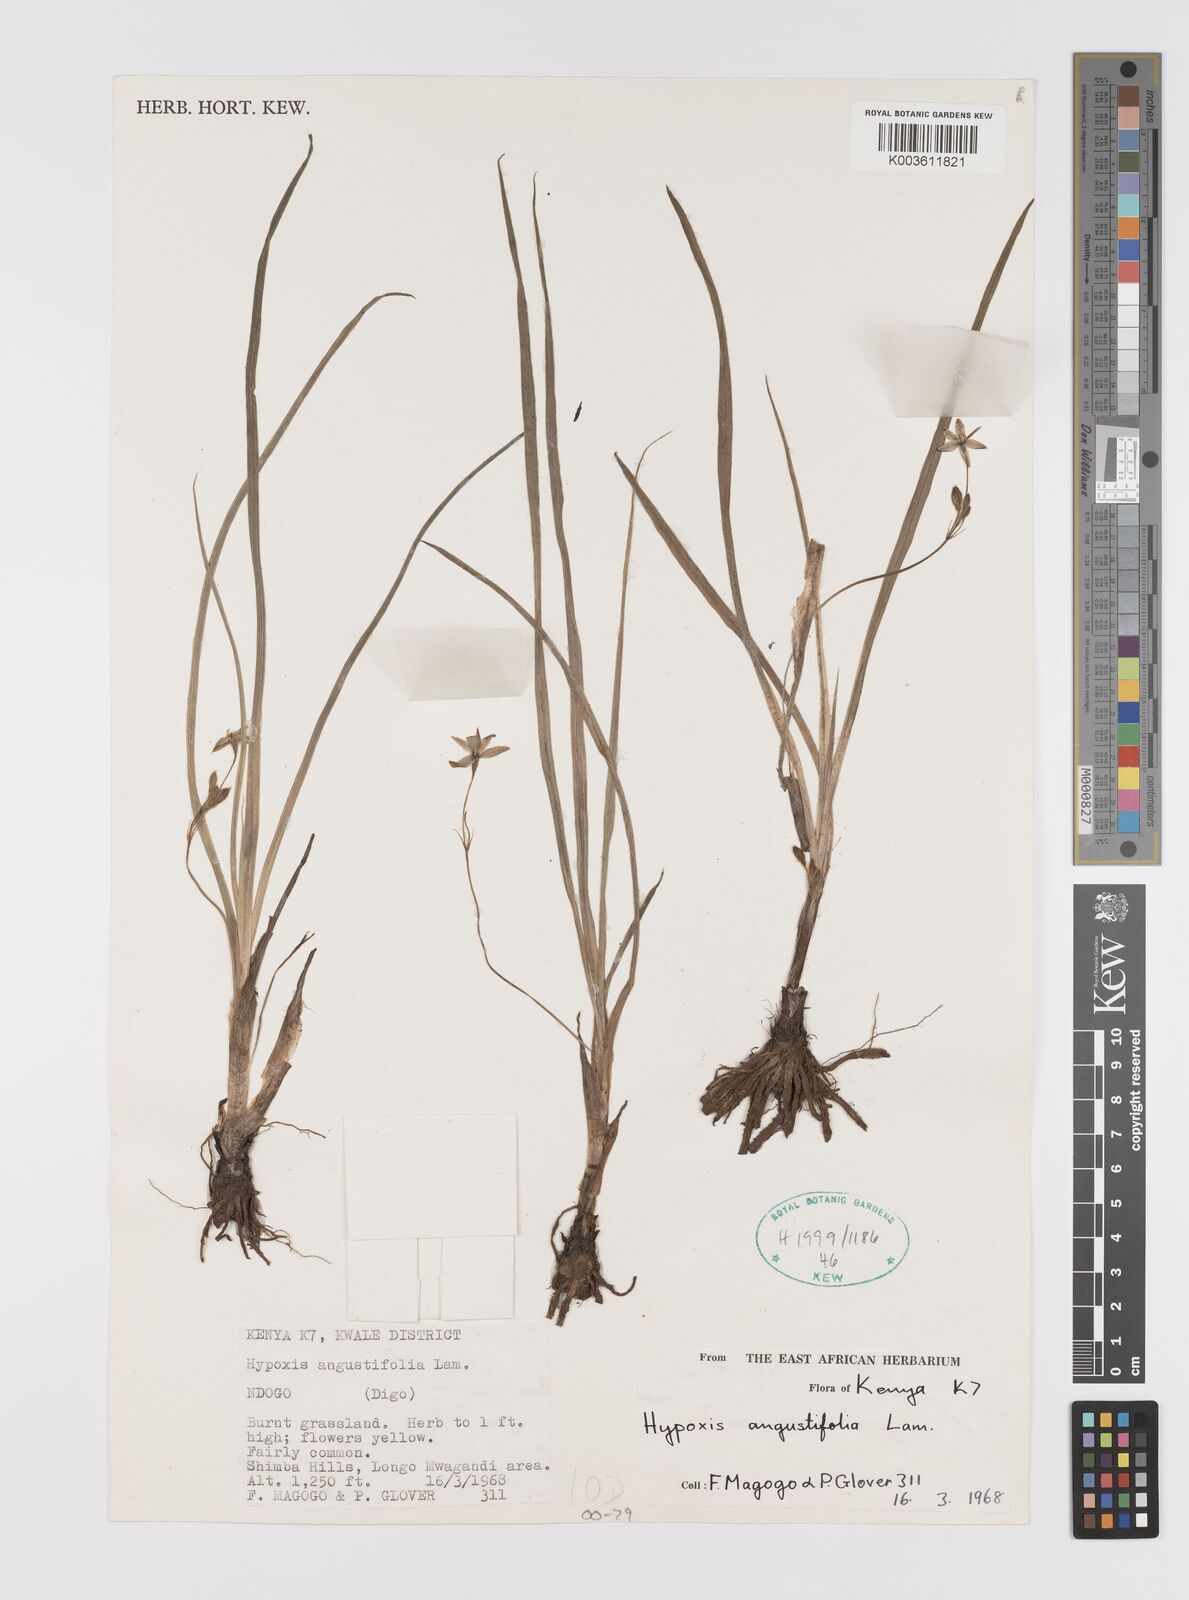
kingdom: Plantae
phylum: Tracheophyta
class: Liliopsida
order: Asparagales
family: Hypoxidaceae
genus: Hypoxis
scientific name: Hypoxis angustifolia
